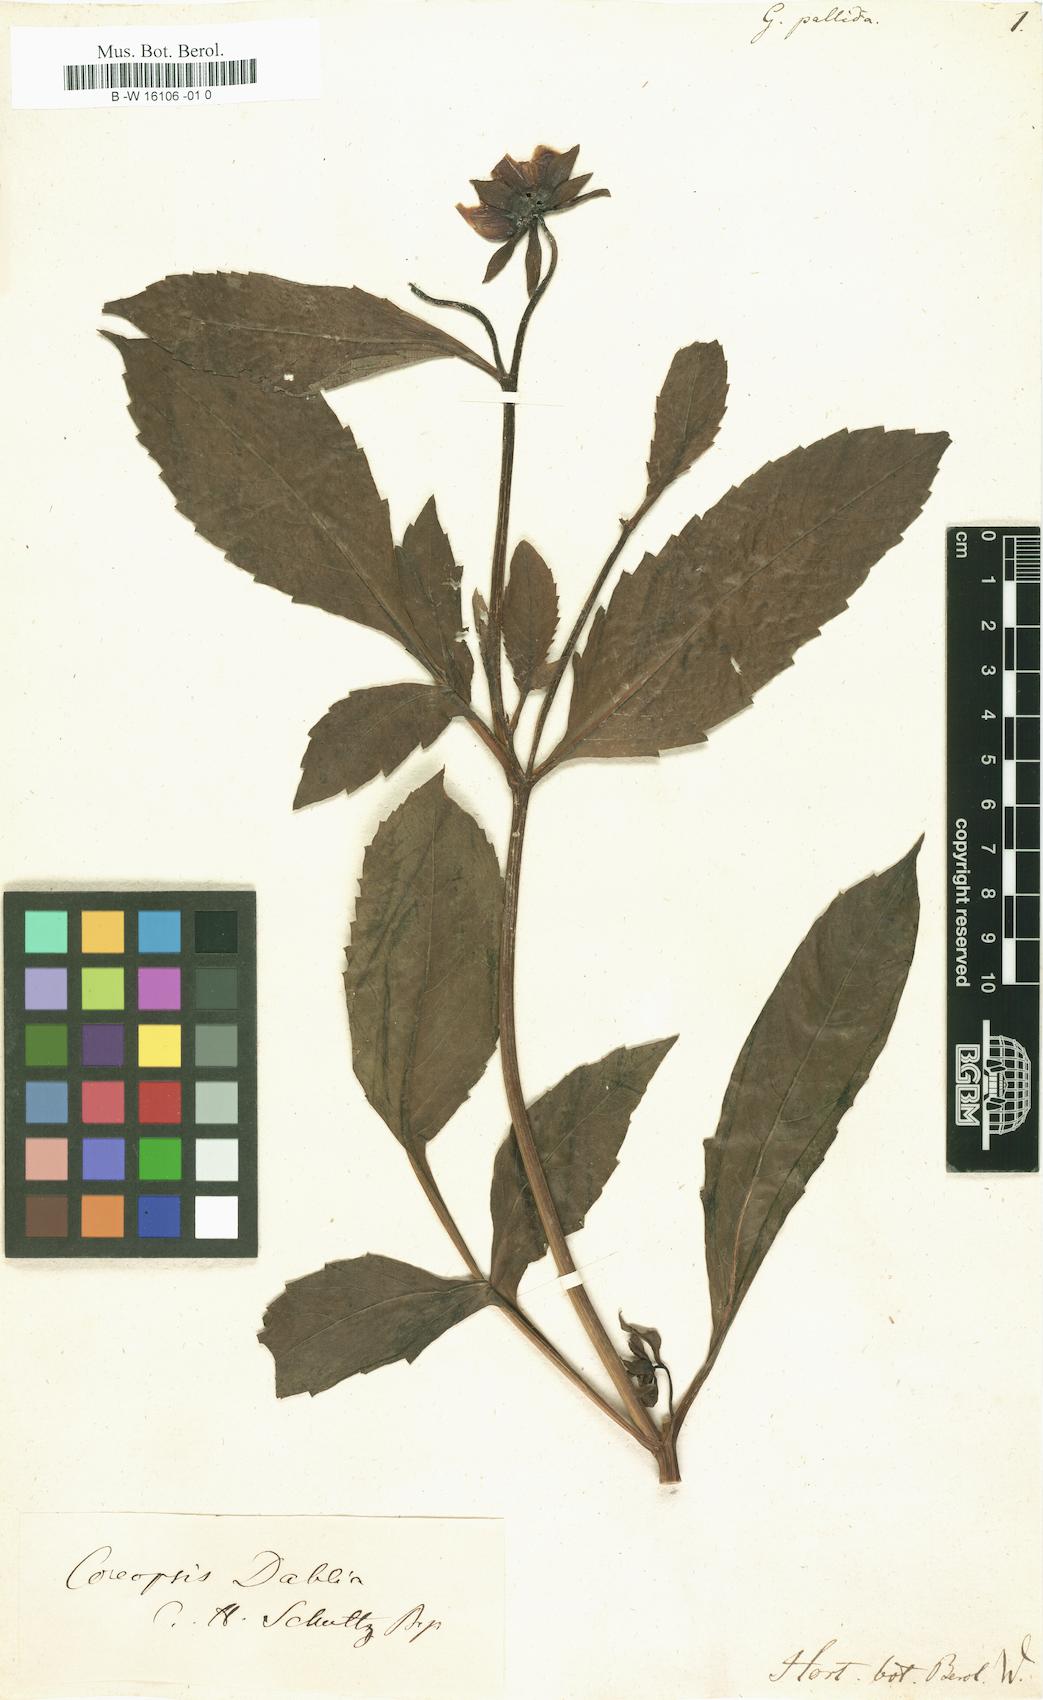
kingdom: Plantae
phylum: Tracheophyta
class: Magnoliopsida
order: Asterales
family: Asteraceae
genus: Dahlia
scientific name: Dahlia
